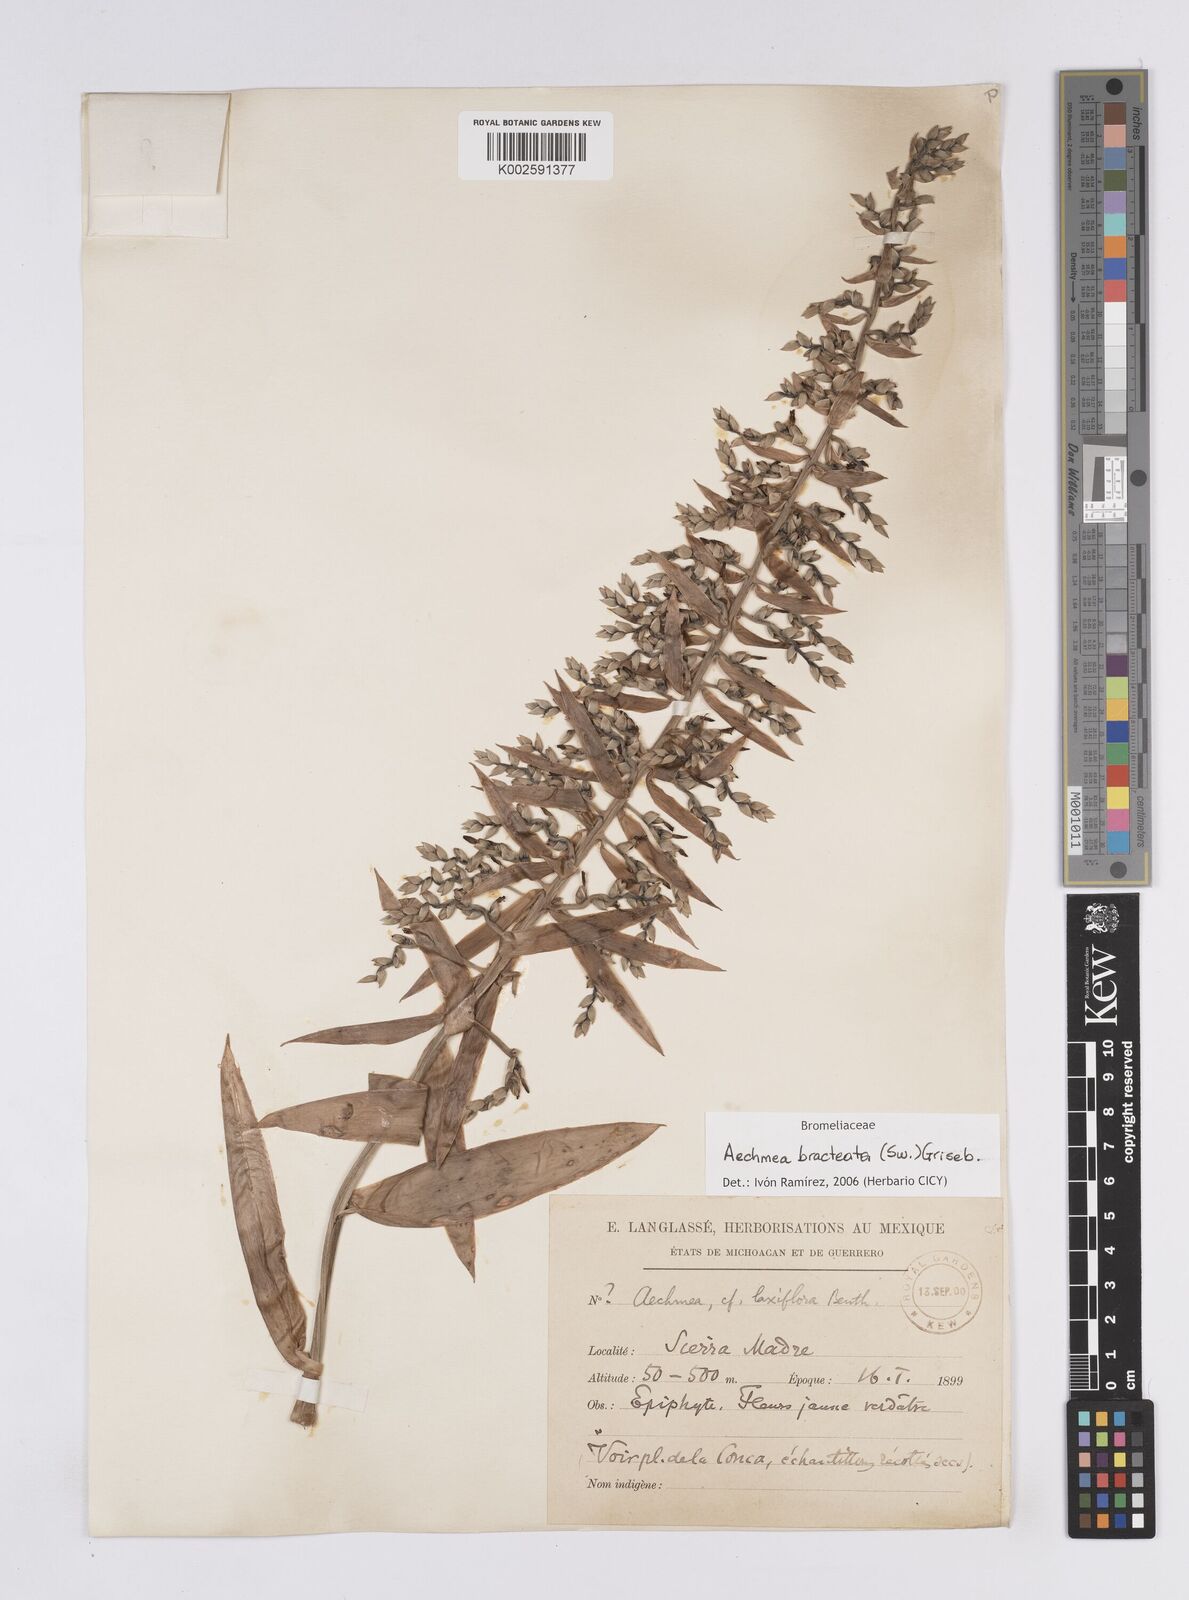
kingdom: Plantae
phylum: Tracheophyta
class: Liliopsida
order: Poales
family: Bromeliaceae
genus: Aechmea
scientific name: Aechmea bracteata
